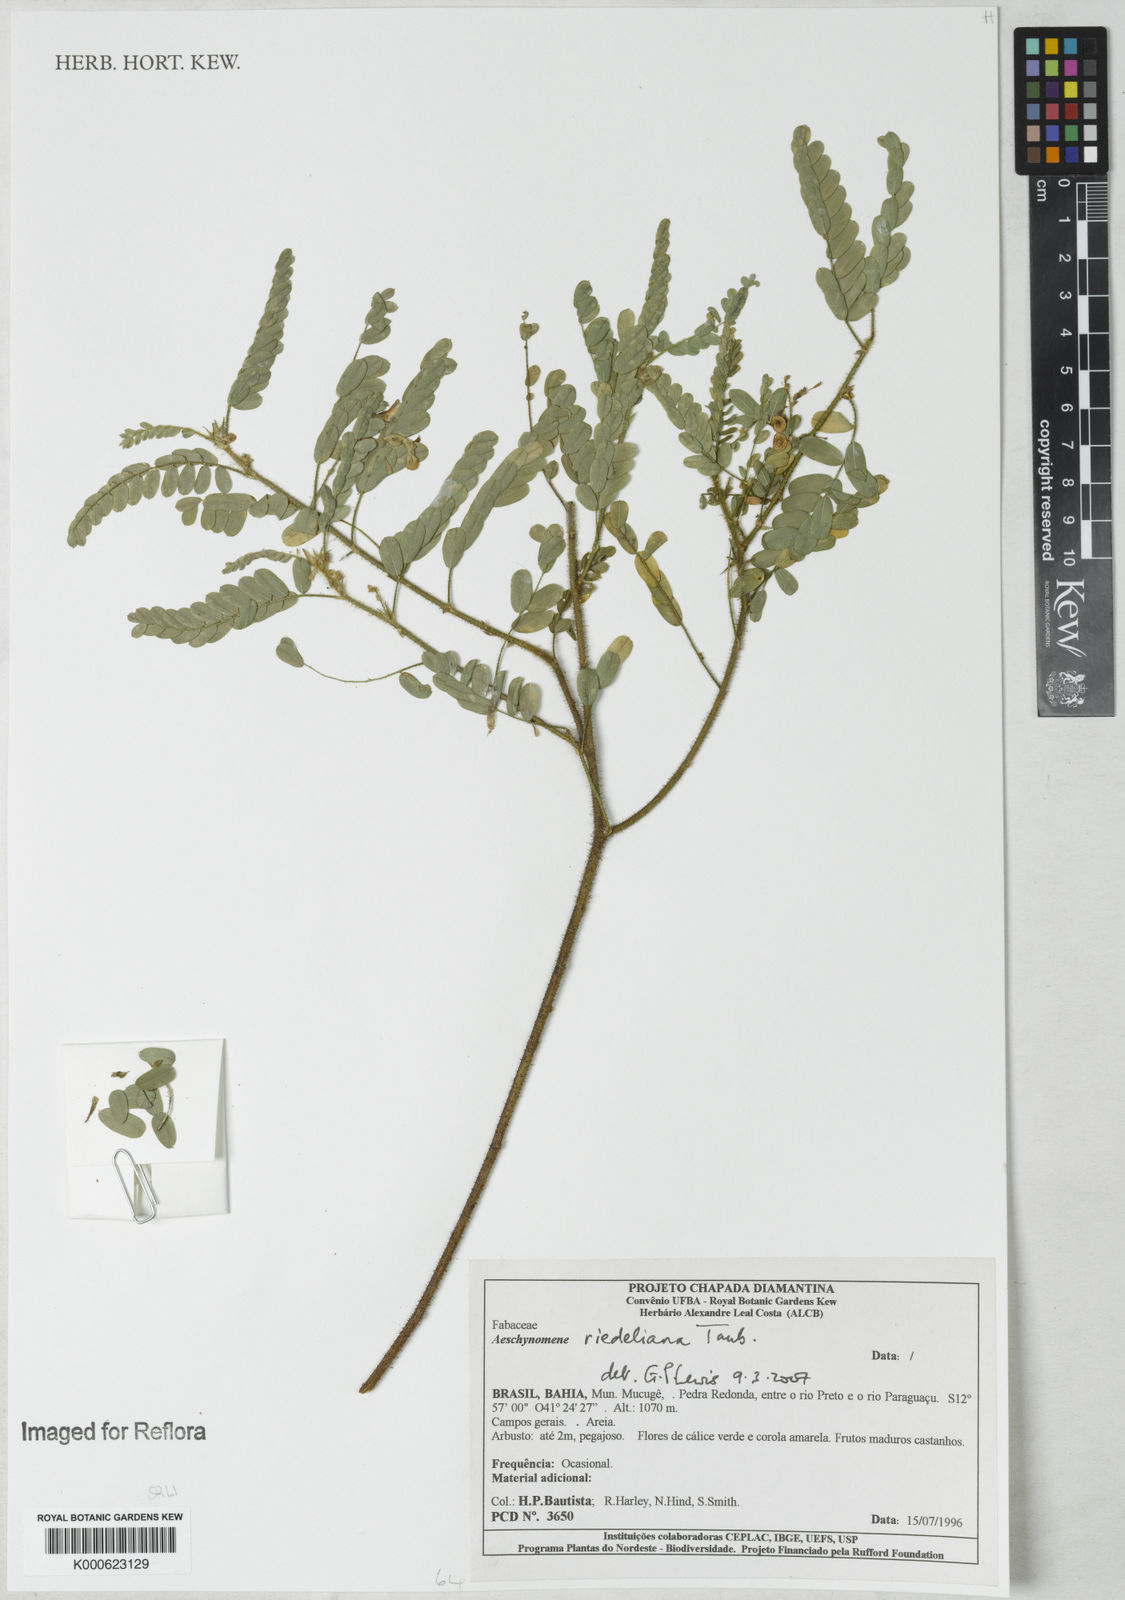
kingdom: Plantae
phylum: Tracheophyta
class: Magnoliopsida
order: Fabales
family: Fabaceae
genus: Ctenodon
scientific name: Ctenodon riedelianus
